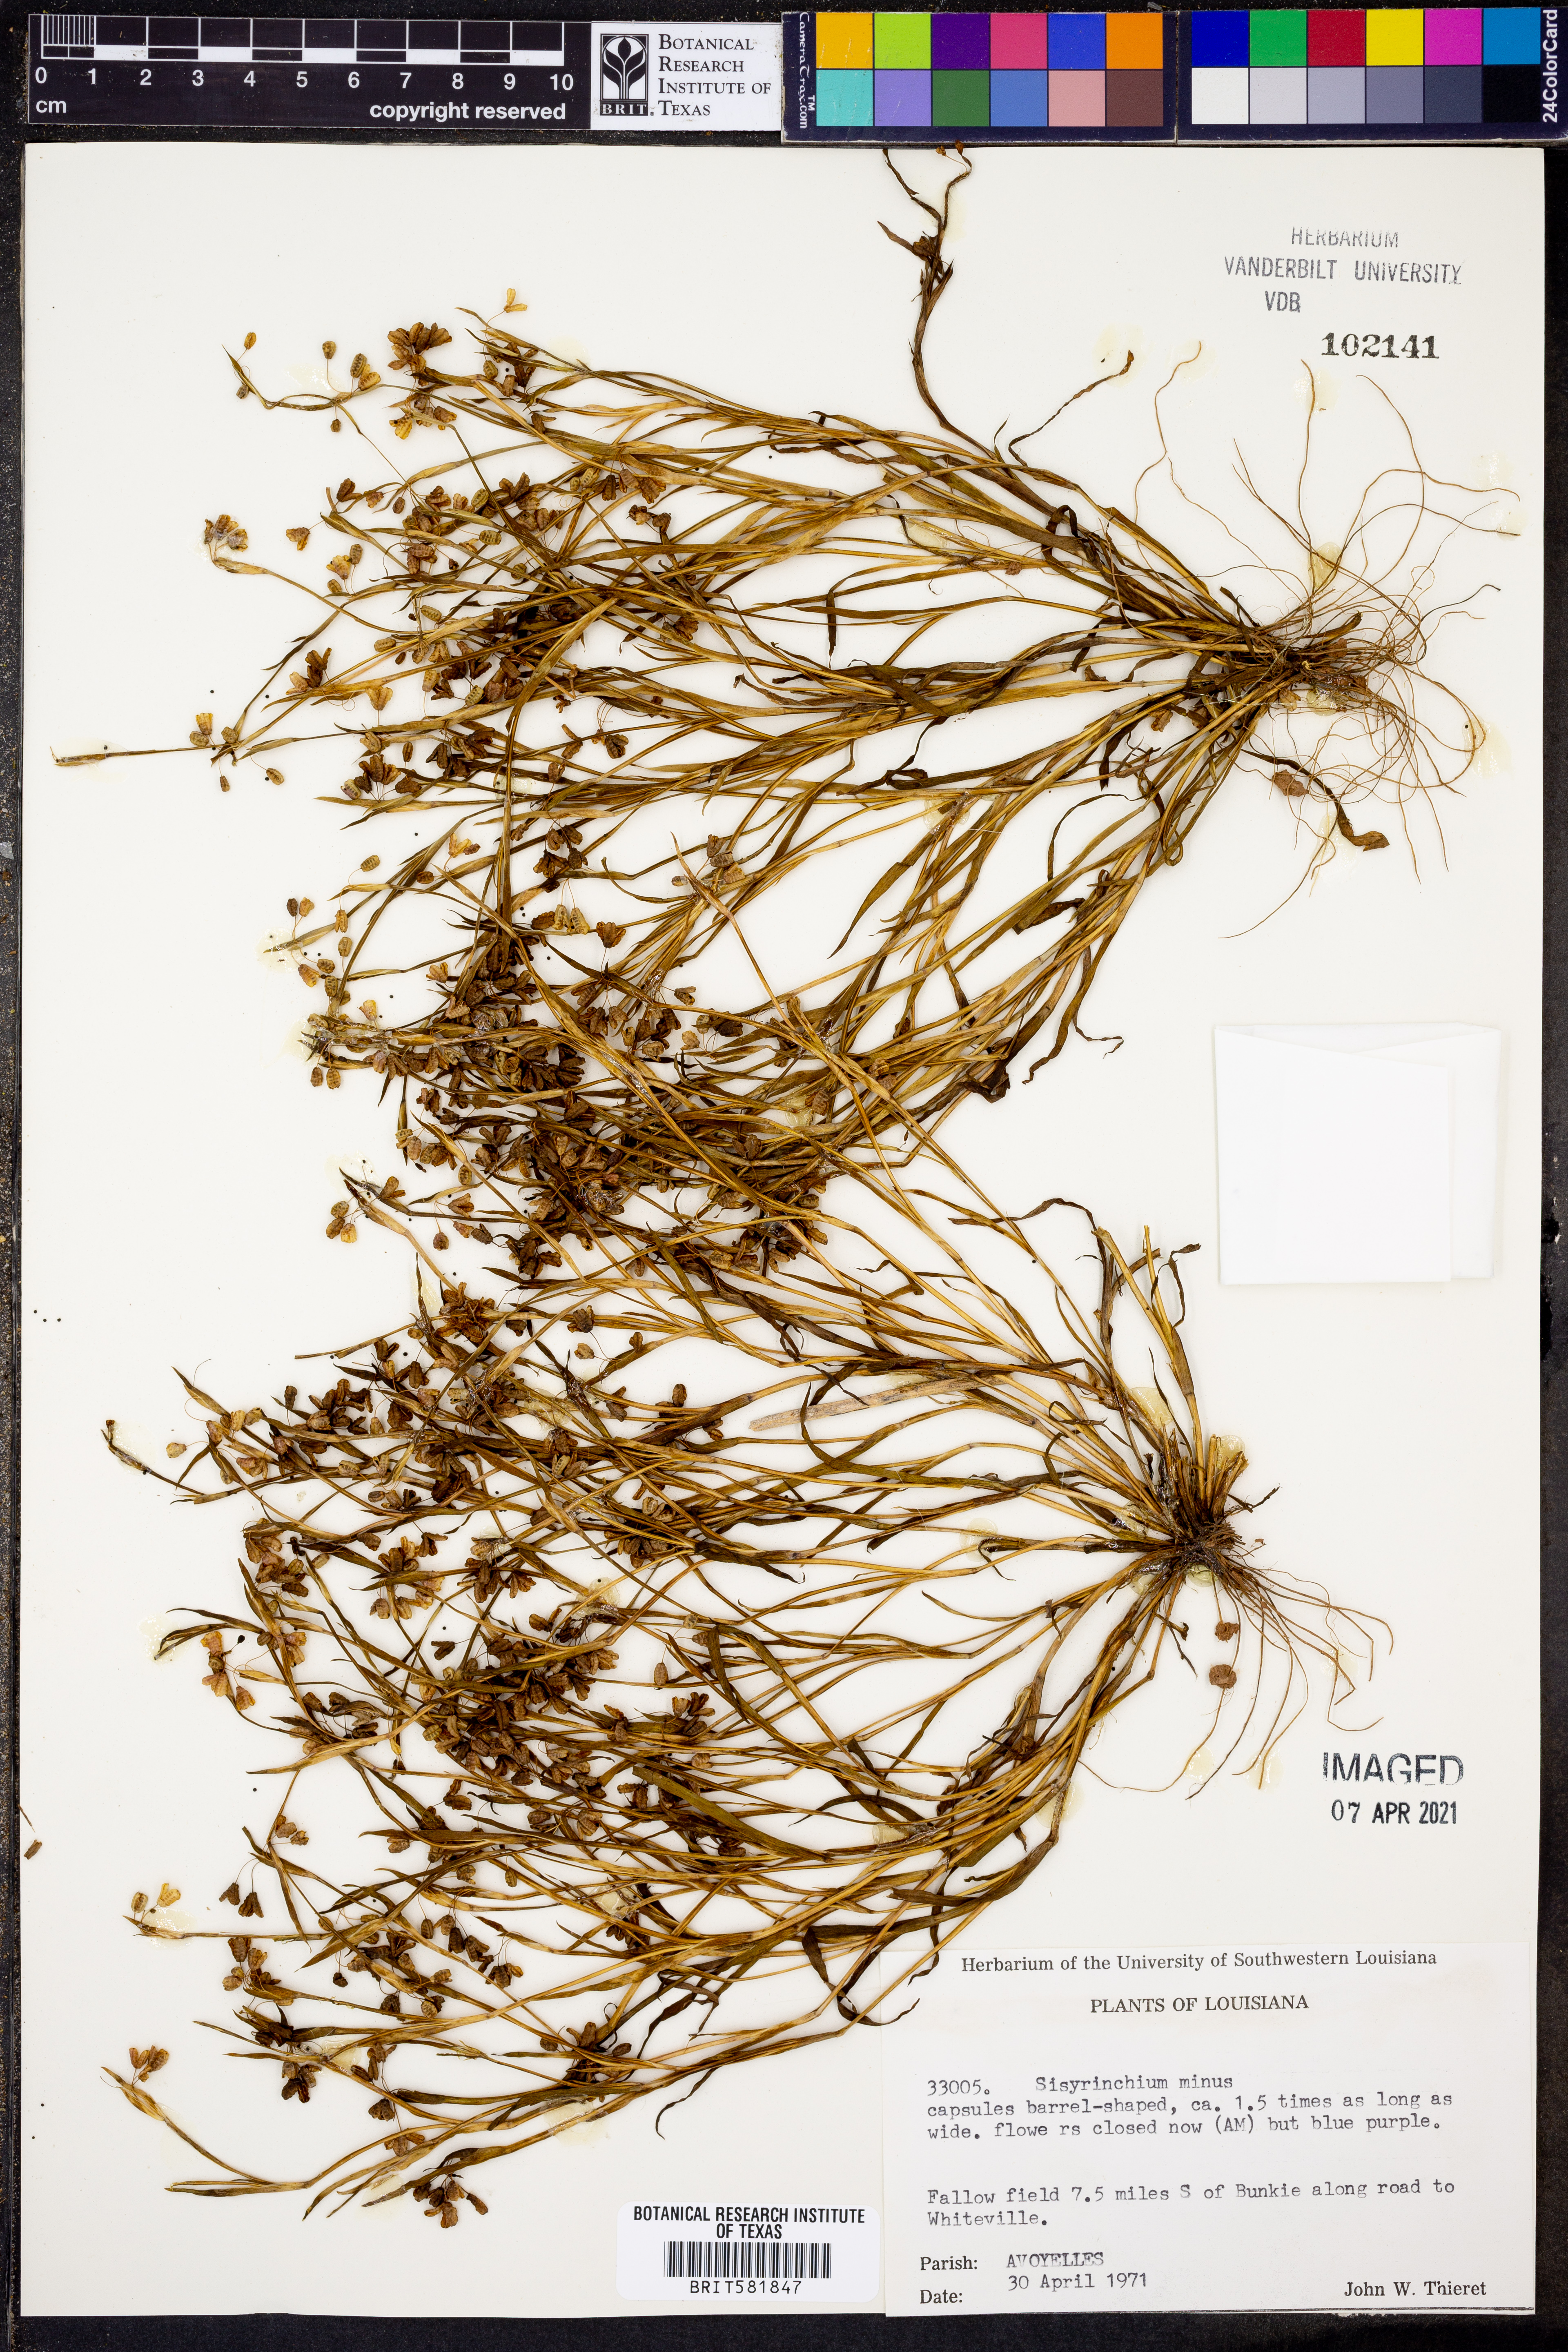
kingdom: Plantae
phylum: Tracheophyta
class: Liliopsida
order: Asparagales
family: Iridaceae
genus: Sisyrinchium
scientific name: Sisyrinchium minus
